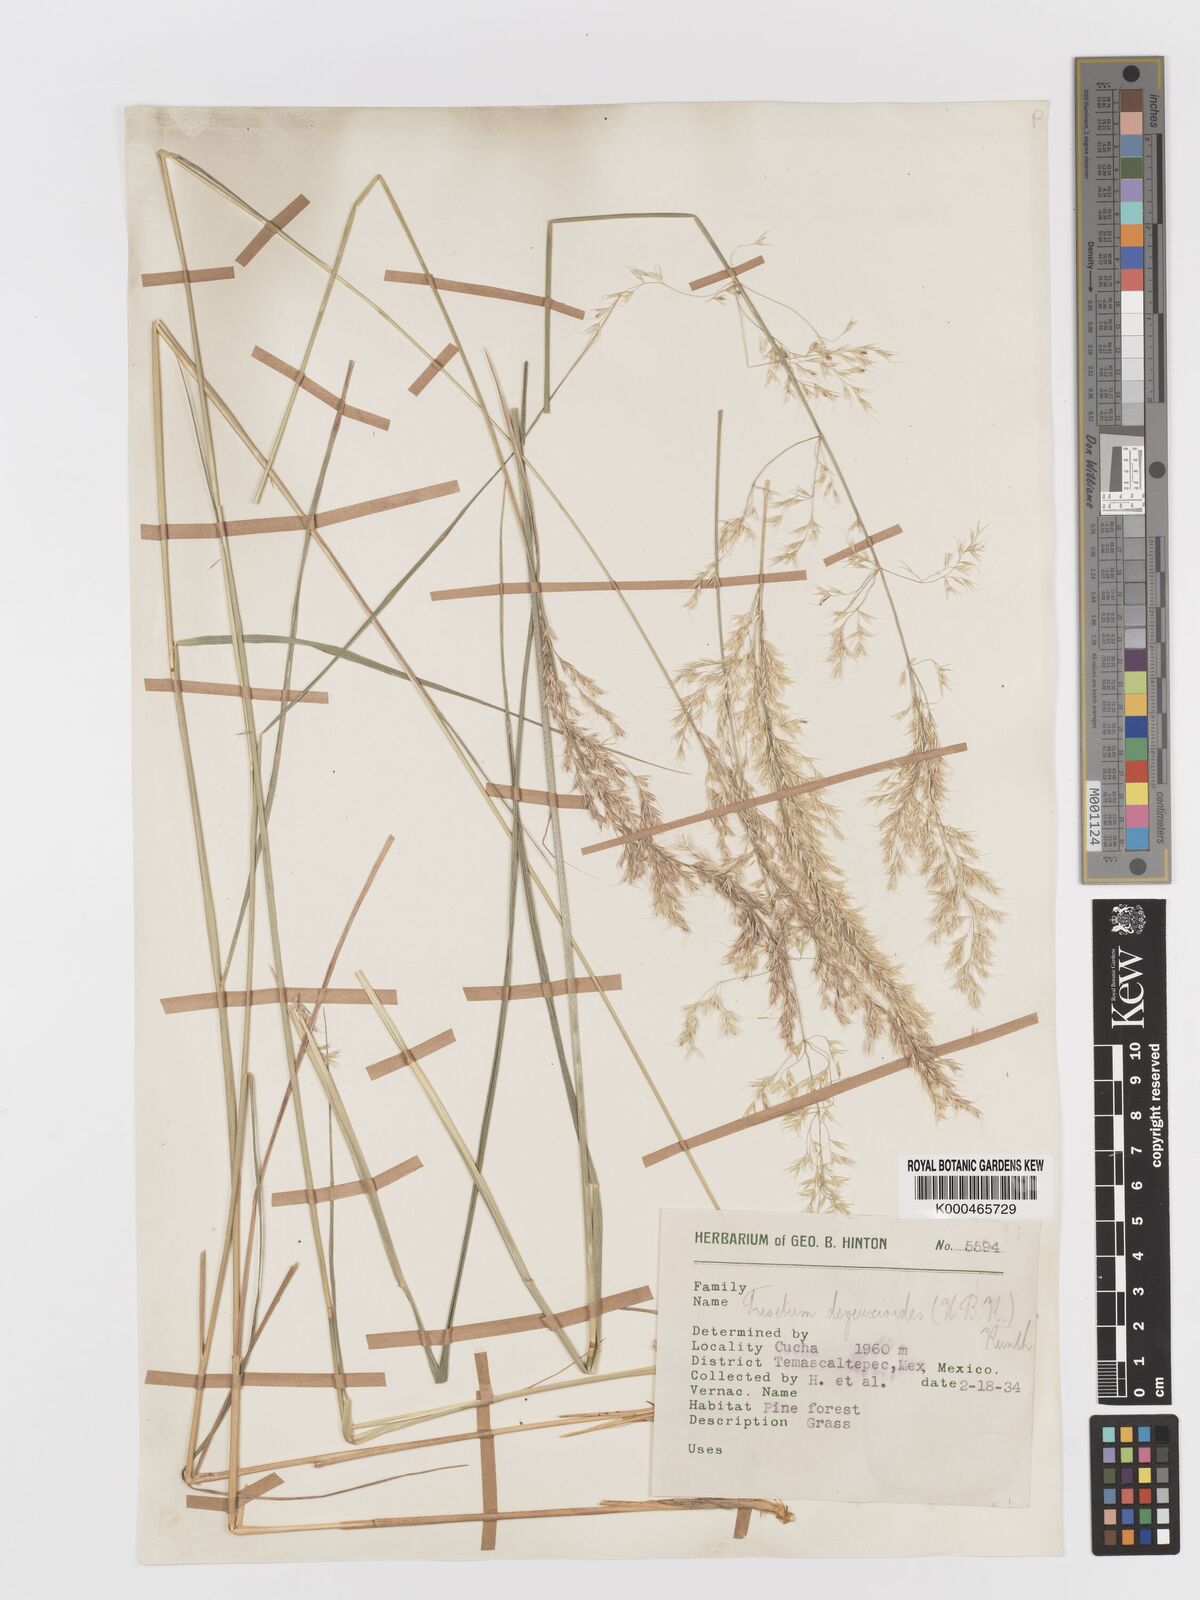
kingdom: Plantae
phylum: Tracheophyta
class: Liliopsida
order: Poales
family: Poaceae
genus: Peyritschia
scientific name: Peyritschia deyeuxioides
